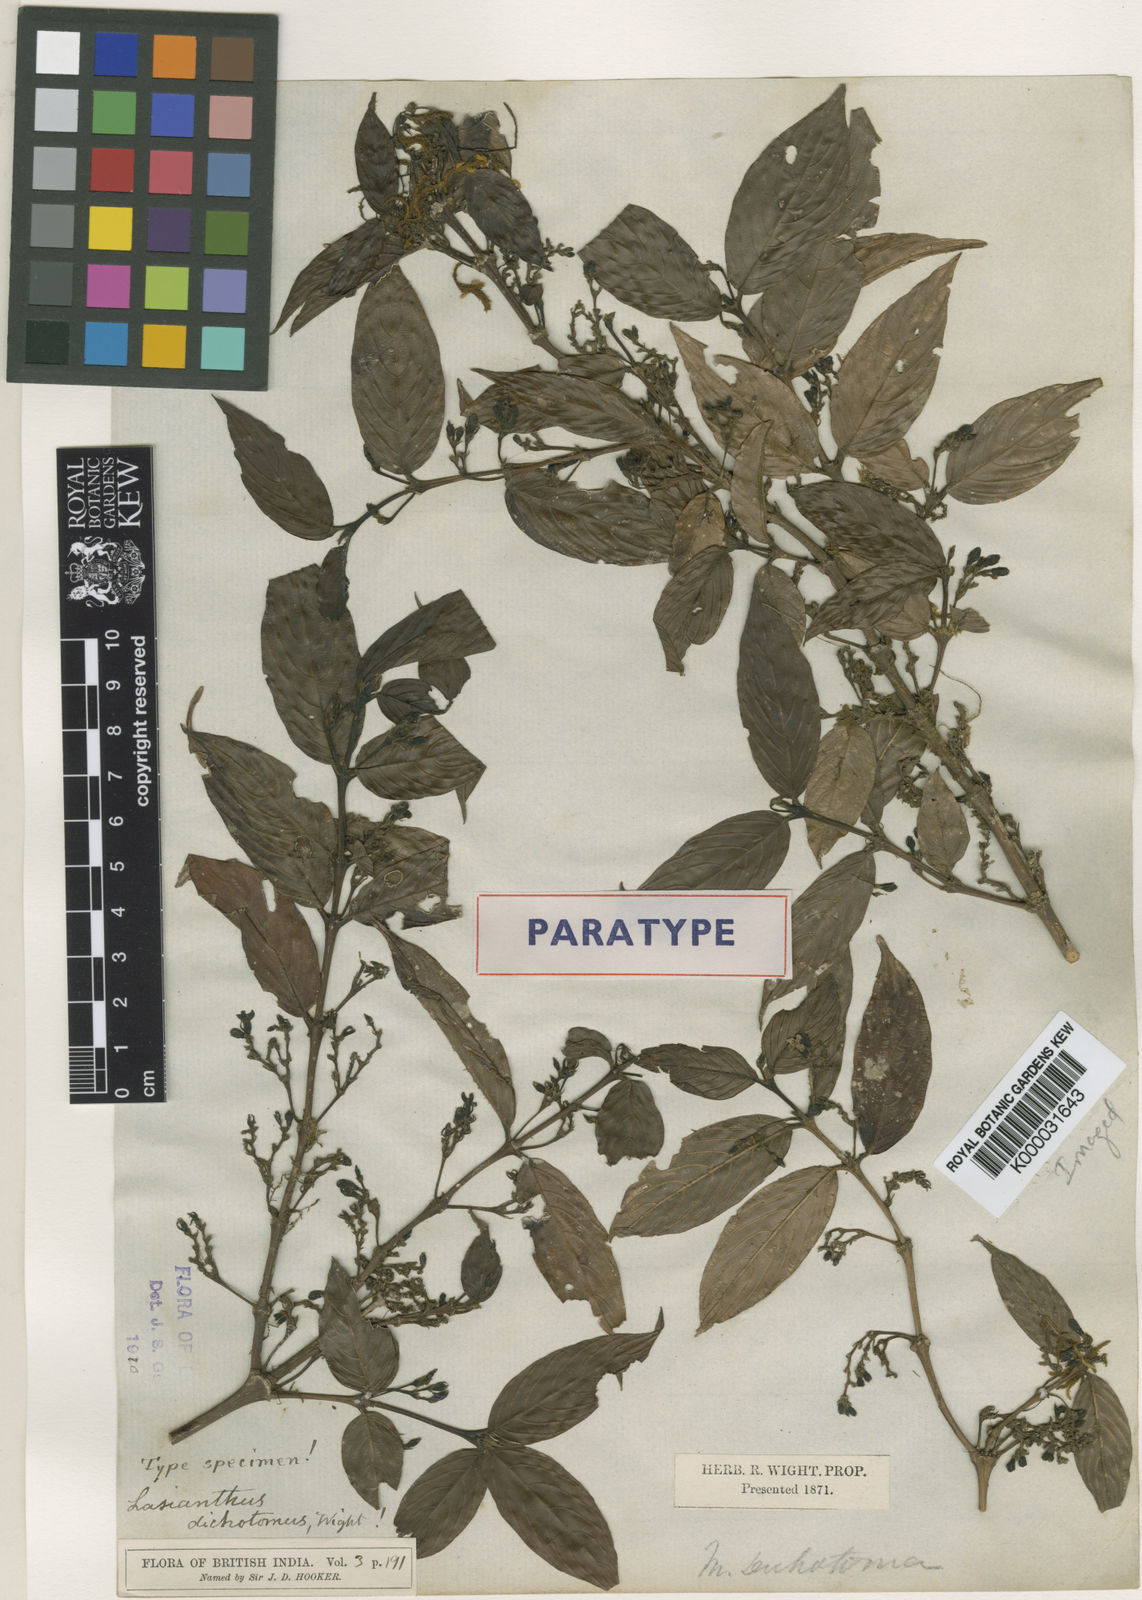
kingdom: Plantae
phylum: Tracheophyta
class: Magnoliopsida
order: Gentianales
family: Rubiaceae
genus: Lasianthus
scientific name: Lasianthus dichotomus
